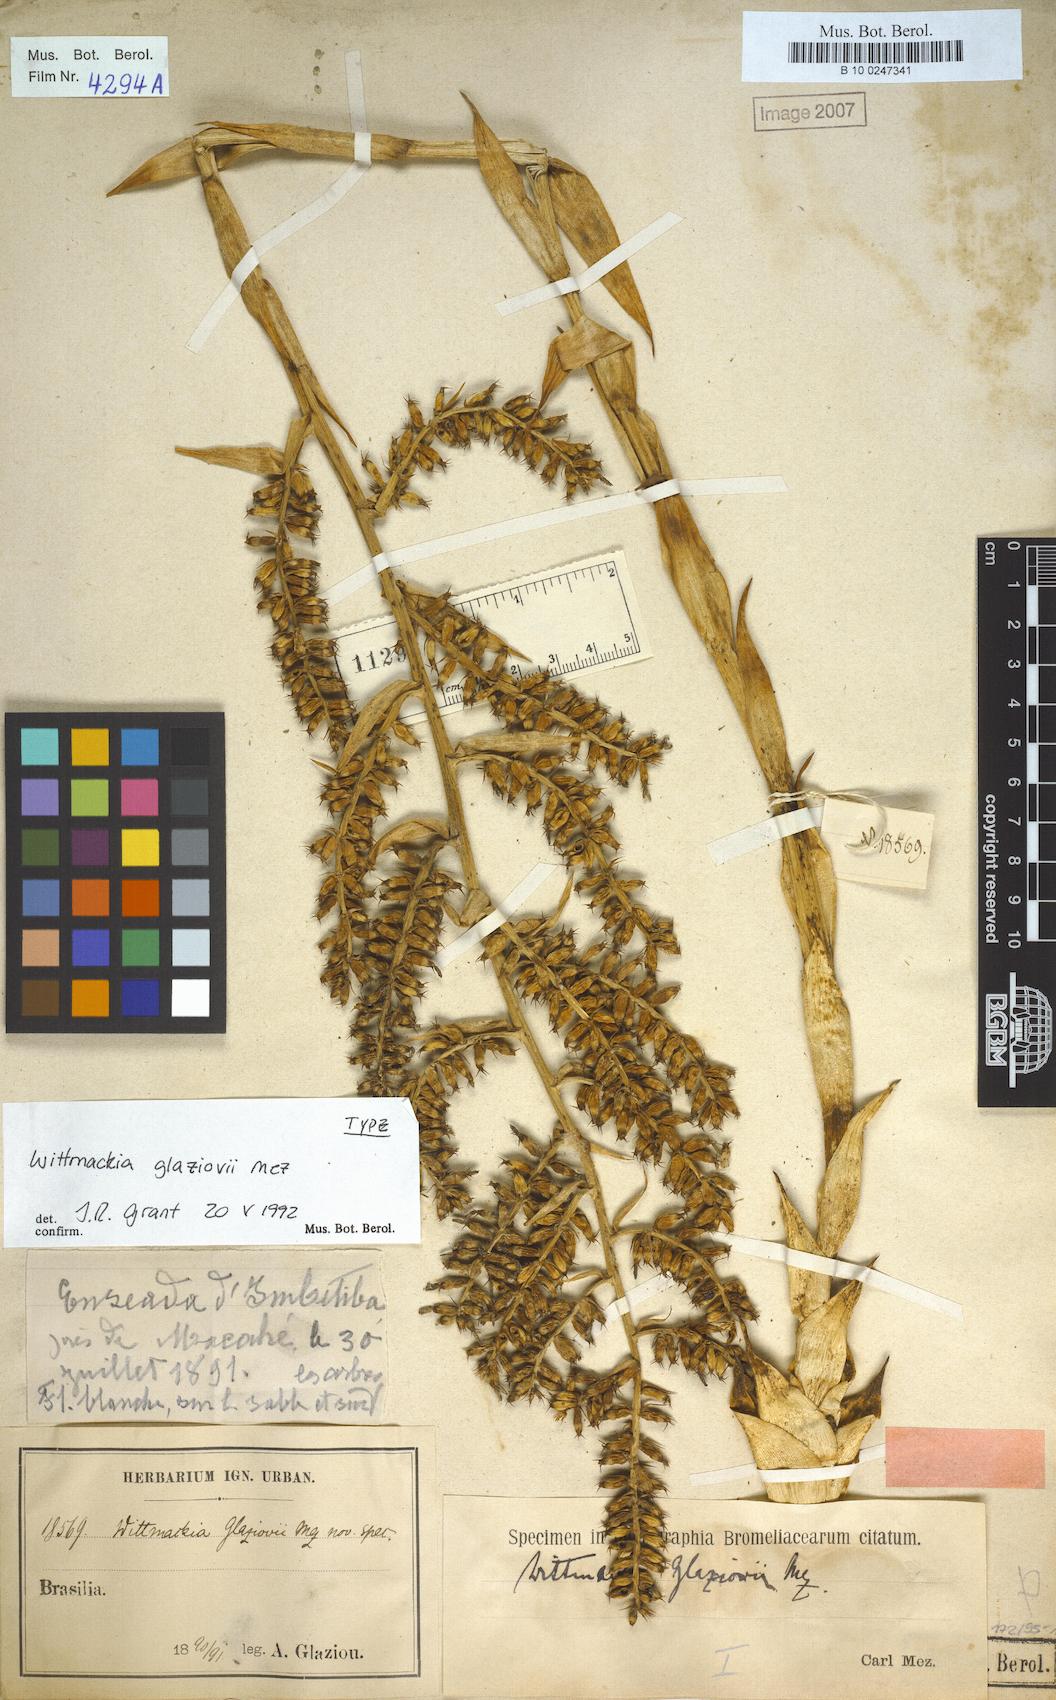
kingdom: Plantae
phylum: Tracheophyta
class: Liliopsida
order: Poales
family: Bromeliaceae
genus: Wittmackia
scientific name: Wittmackia lingulata
